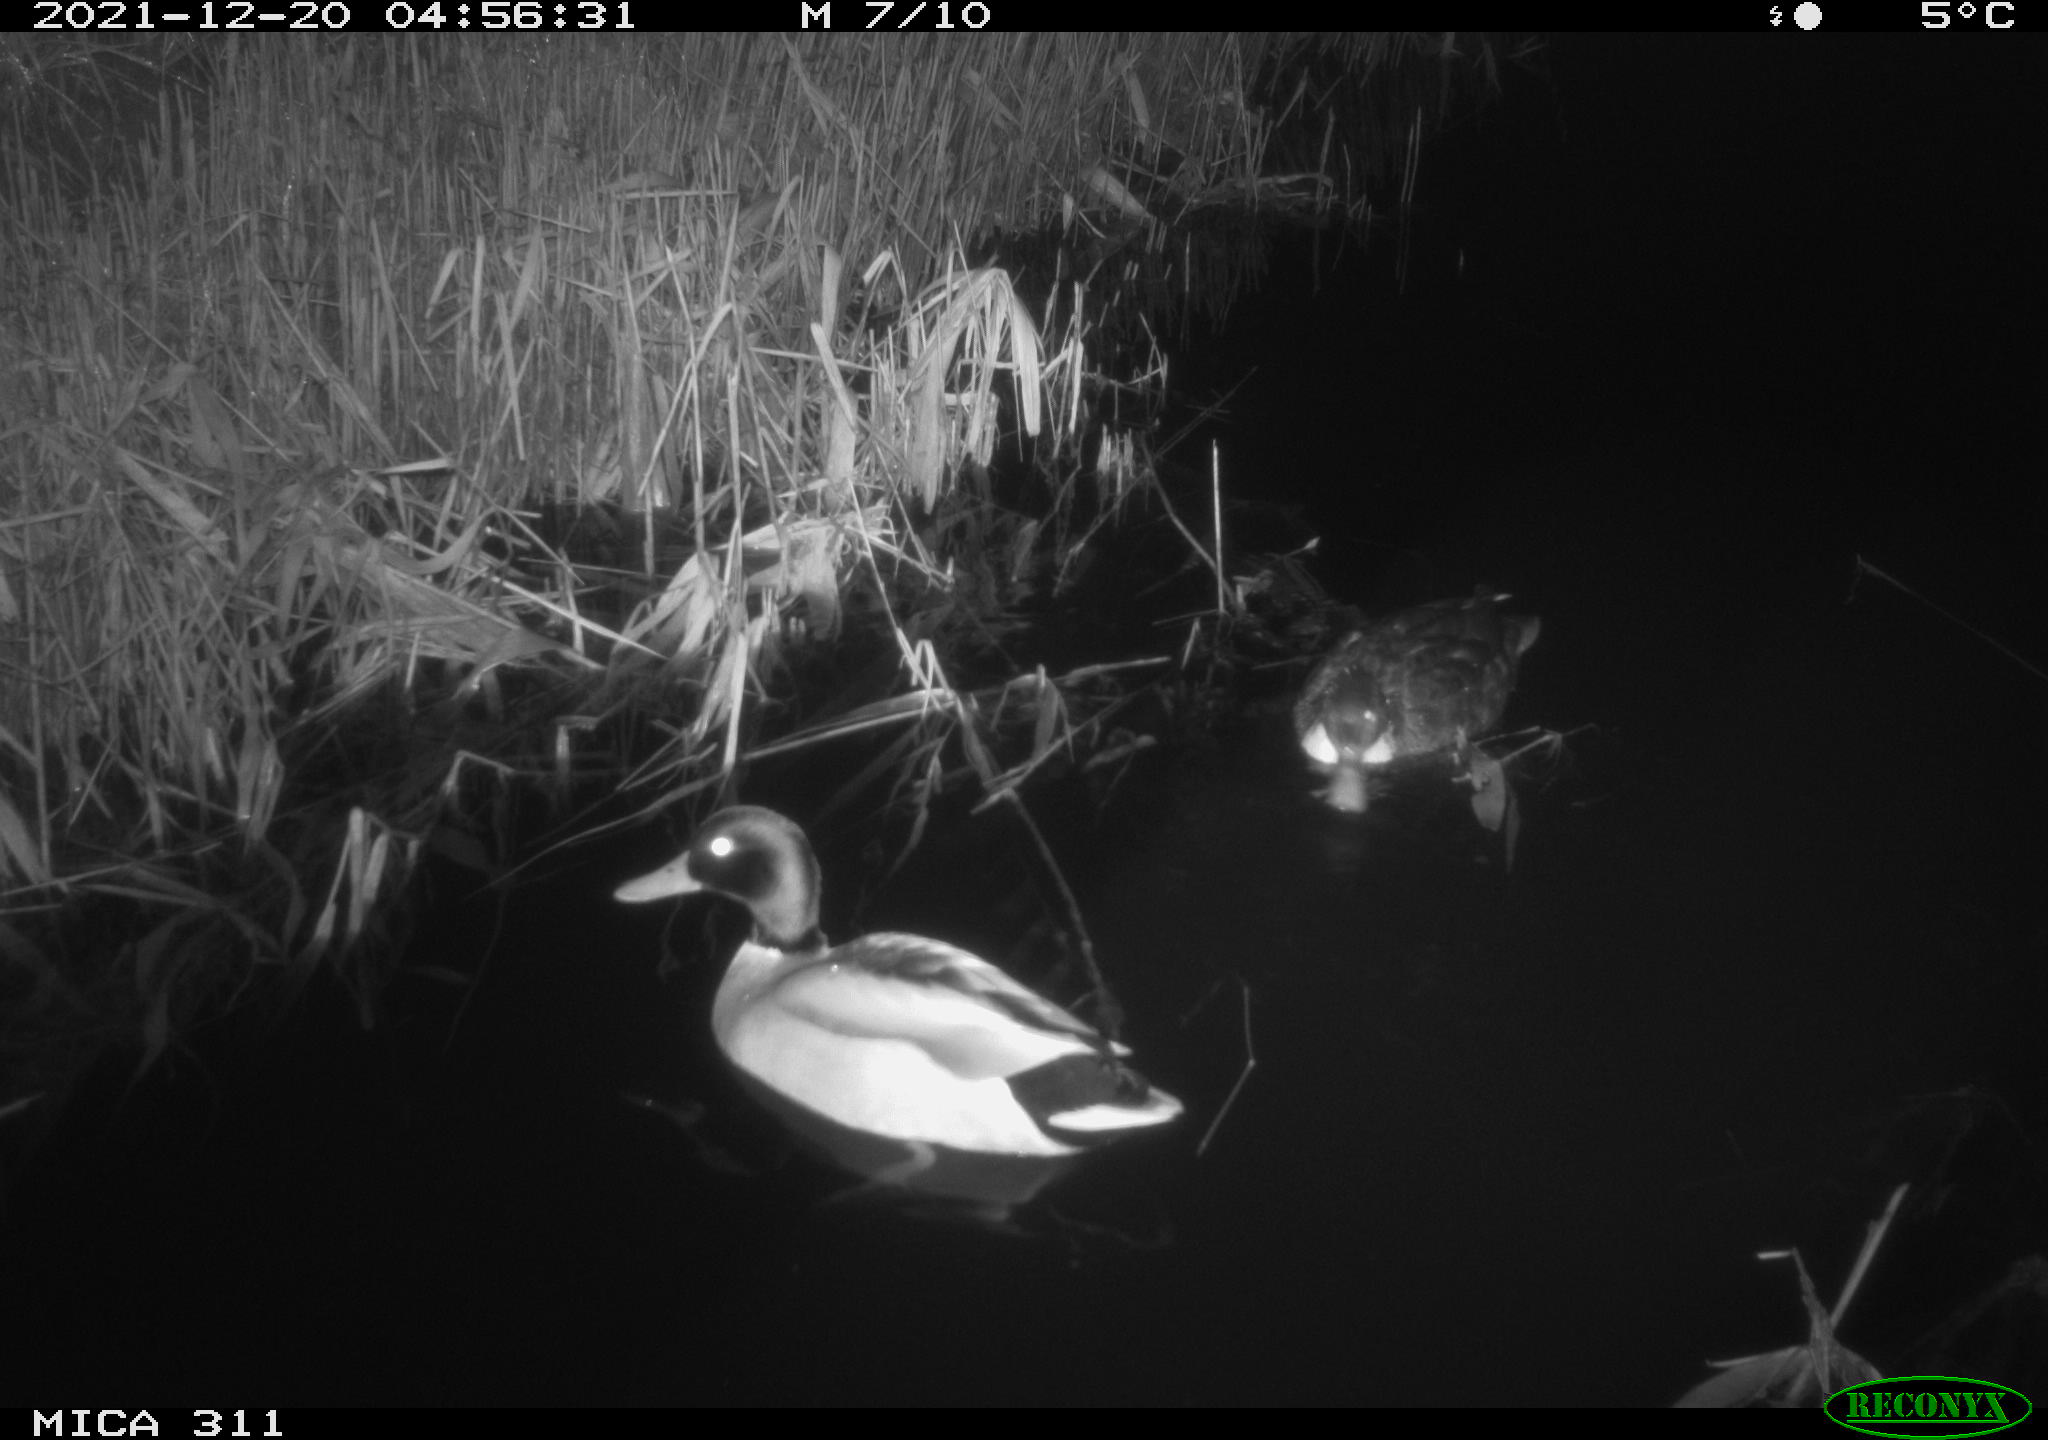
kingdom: Animalia
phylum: Chordata
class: Aves
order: Anseriformes
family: Anatidae
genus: Anas
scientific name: Anas platyrhynchos
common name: Mallard
